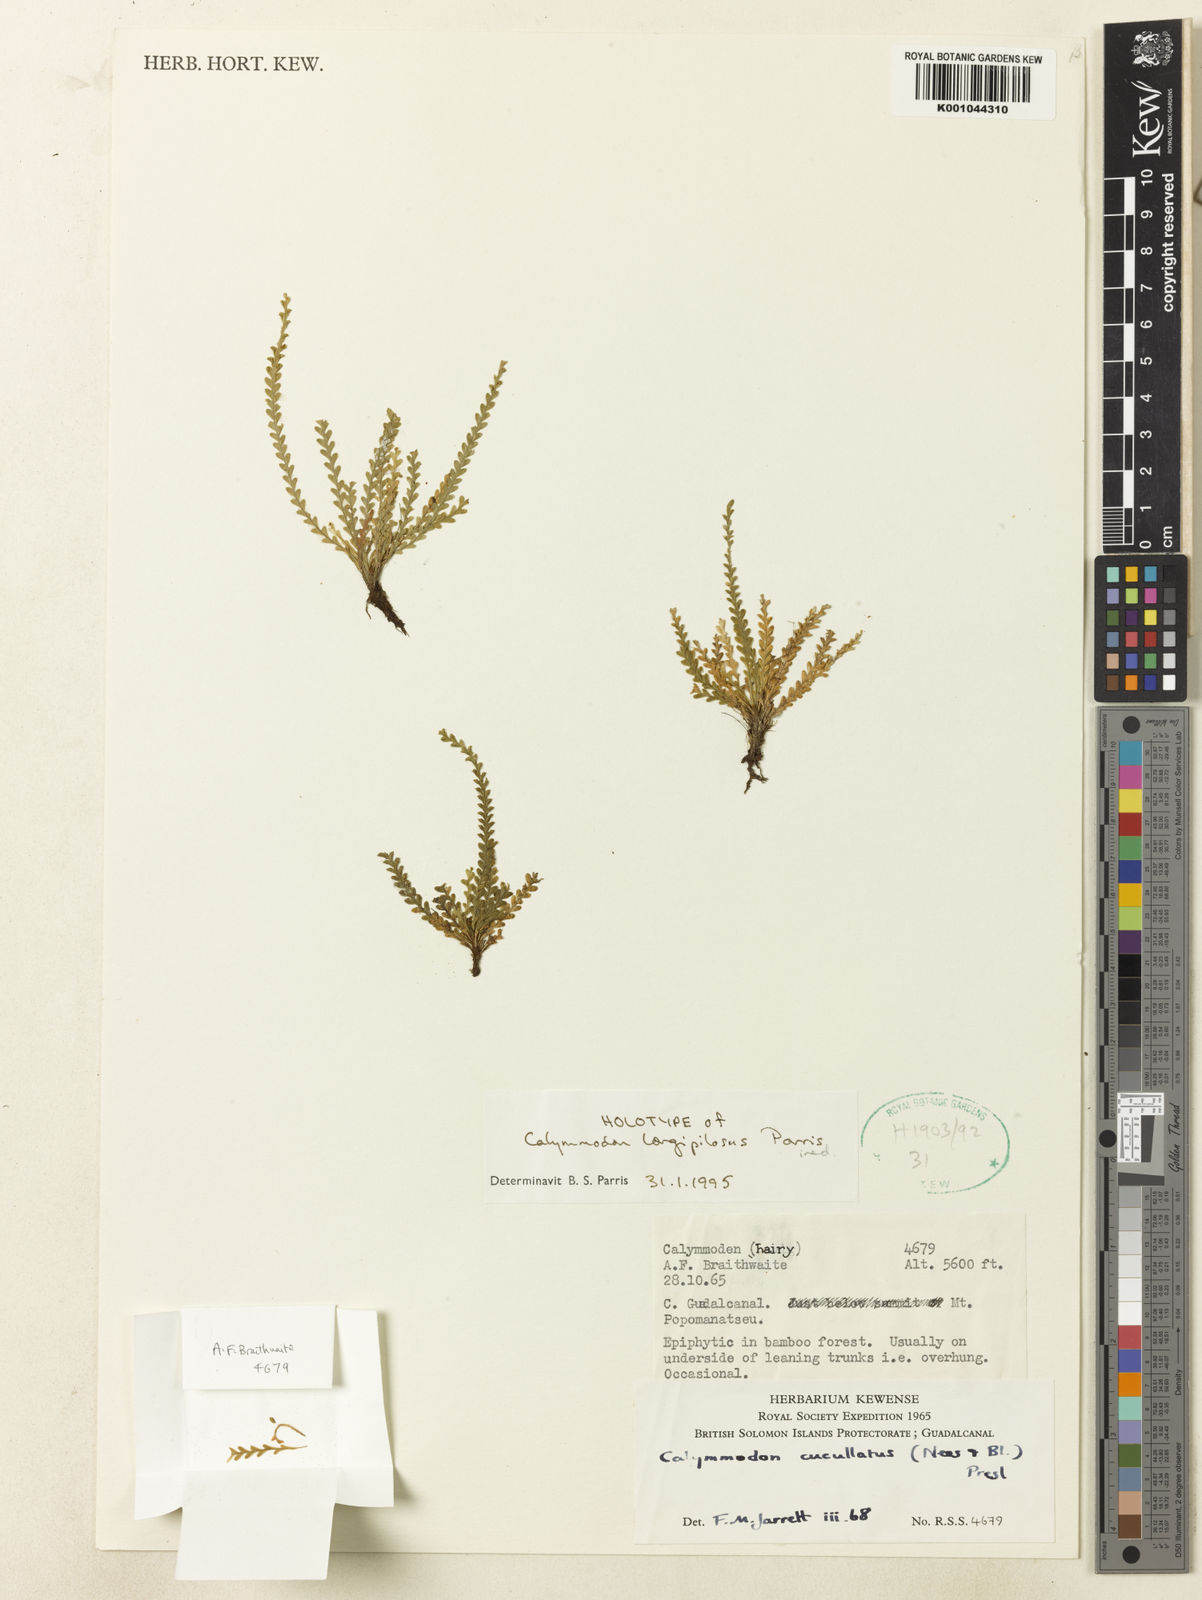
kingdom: Plantae
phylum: Tracheophyta
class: Polypodiopsida
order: Polypodiales
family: Polypodiaceae
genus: Calymmodon
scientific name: Calymmodon gracilis
